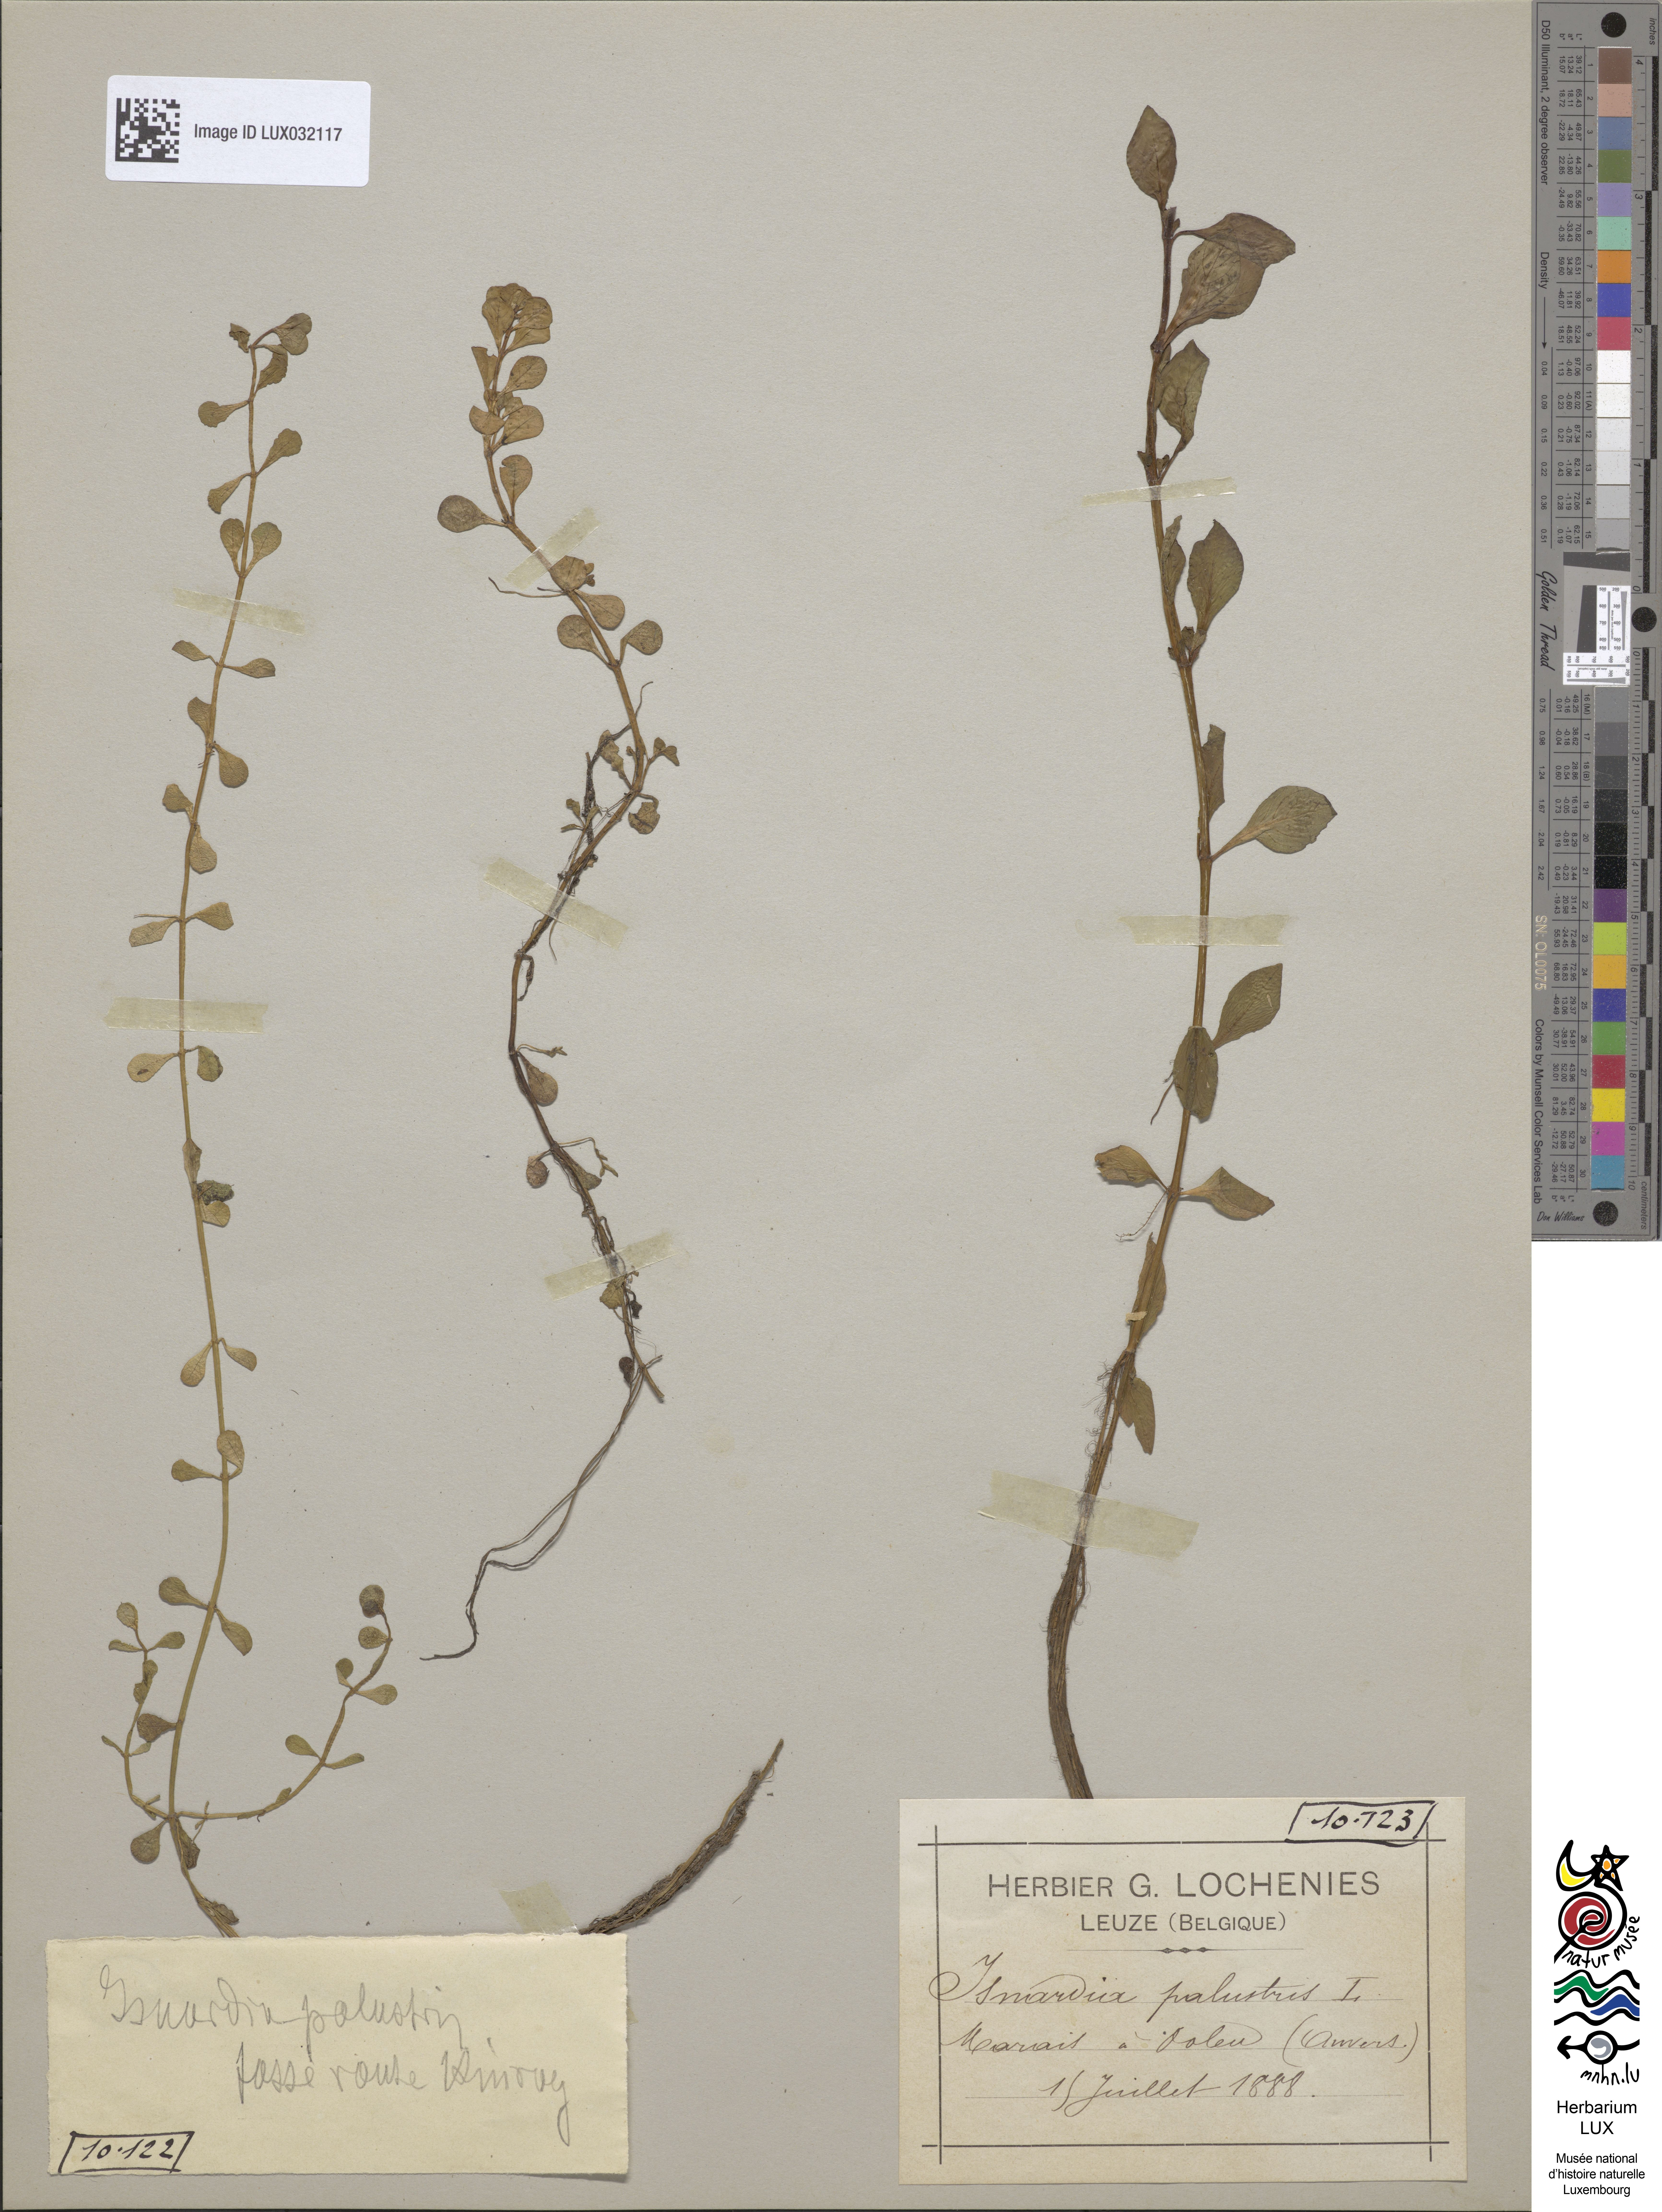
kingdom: Plantae
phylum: Tracheophyta
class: Magnoliopsida
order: Myrtales
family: Onagraceae
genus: Ludwigia
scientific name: Ludwigia palustris
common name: Hampshire-purslane
